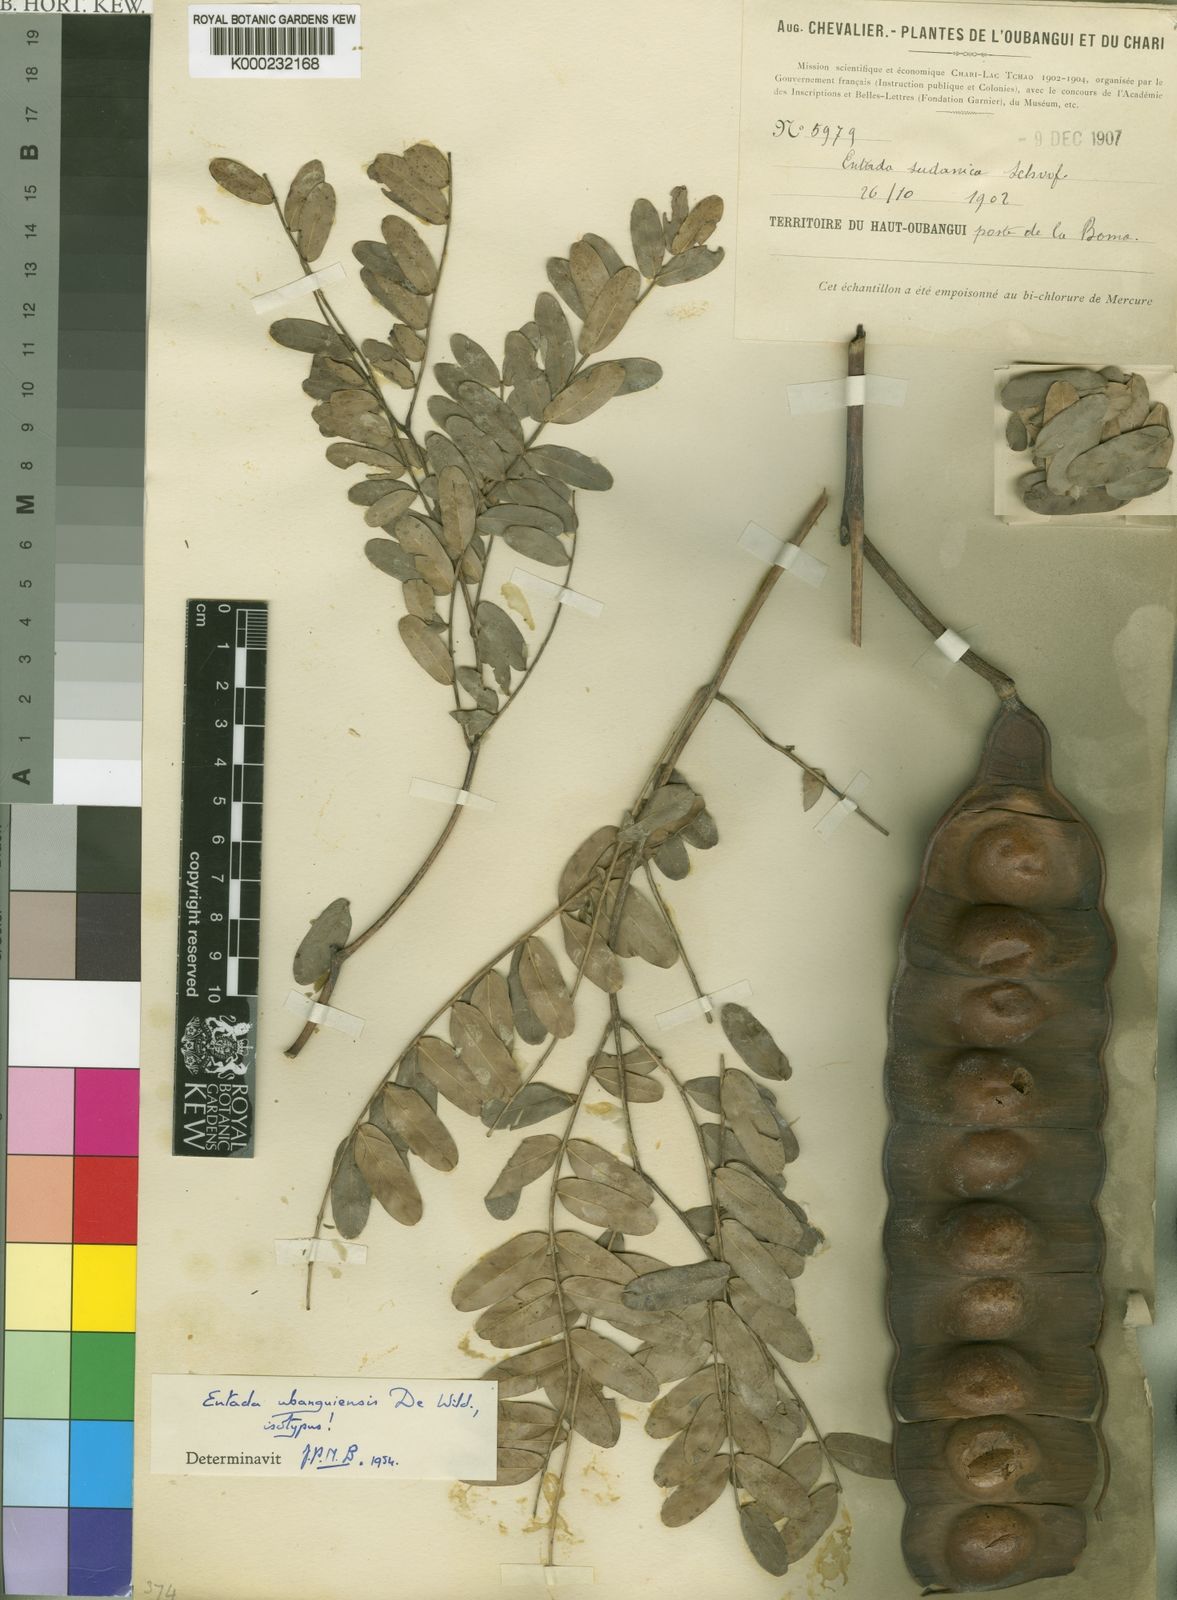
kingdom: Plantae
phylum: Tracheophyta
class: Magnoliopsida
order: Fabales
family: Fabaceae
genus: Entada
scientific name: Entada africana
